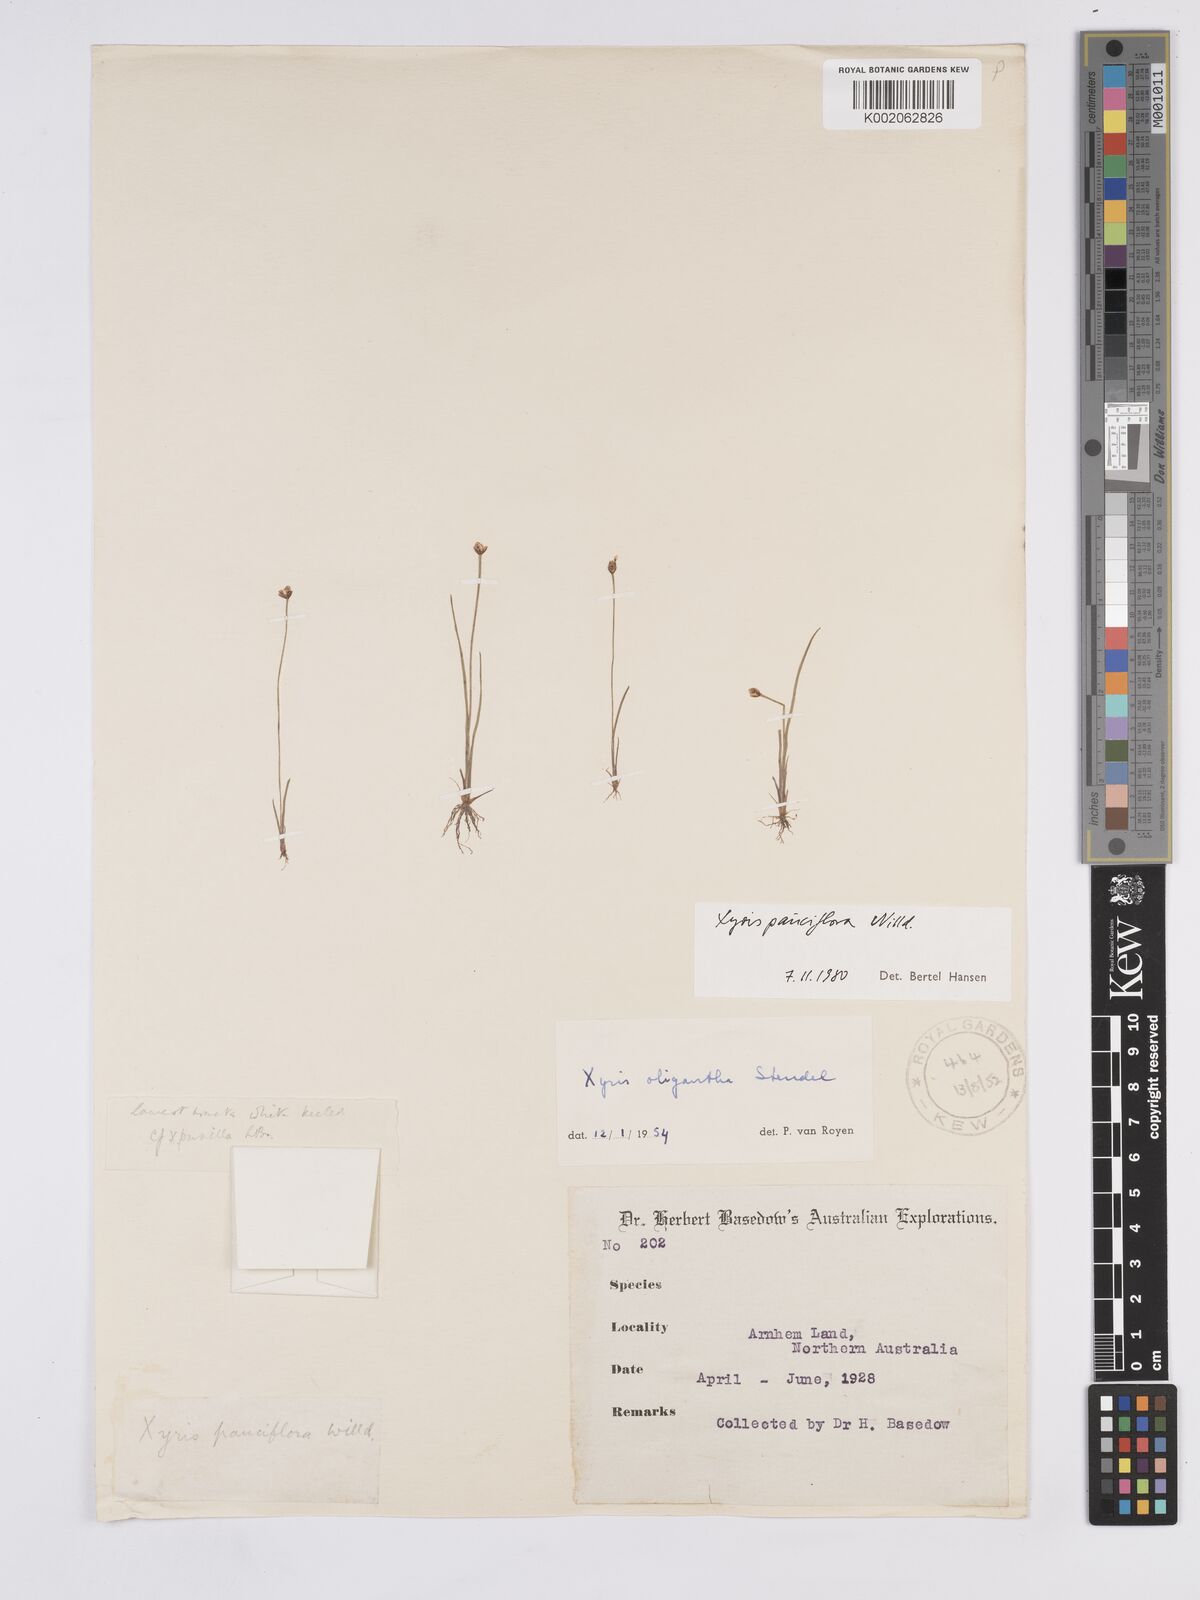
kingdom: Plantae
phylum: Tracheophyta
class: Liliopsida
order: Poales
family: Xyridaceae
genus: Xyris
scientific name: Xyris pauciflora
